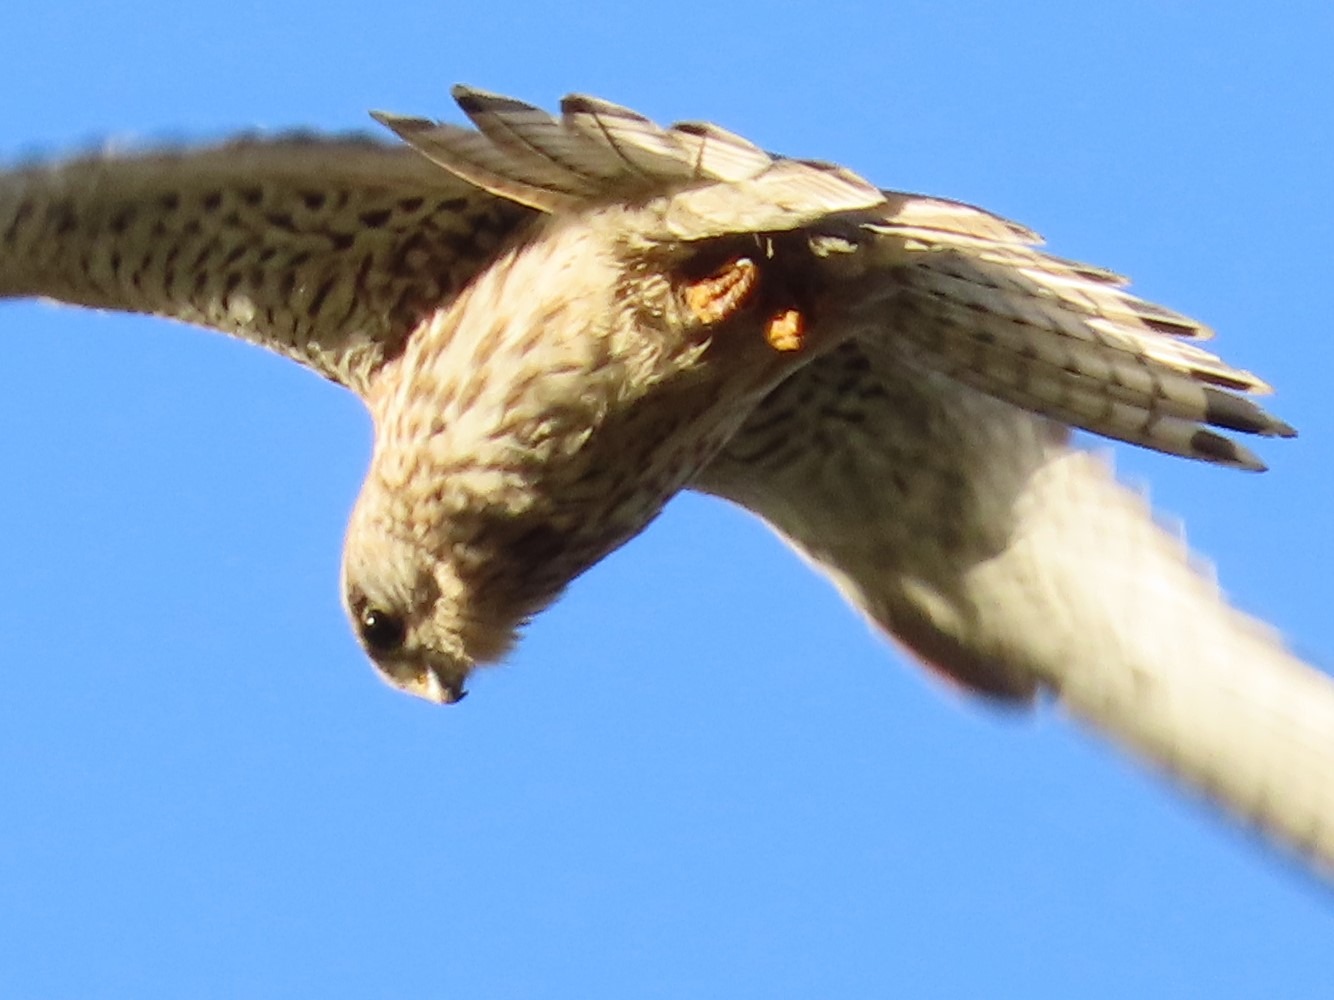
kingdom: Animalia
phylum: Chordata
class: Aves
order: Falconiformes
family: Falconidae
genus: Falco
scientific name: Falco tinnunculus
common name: Tårnfalk
